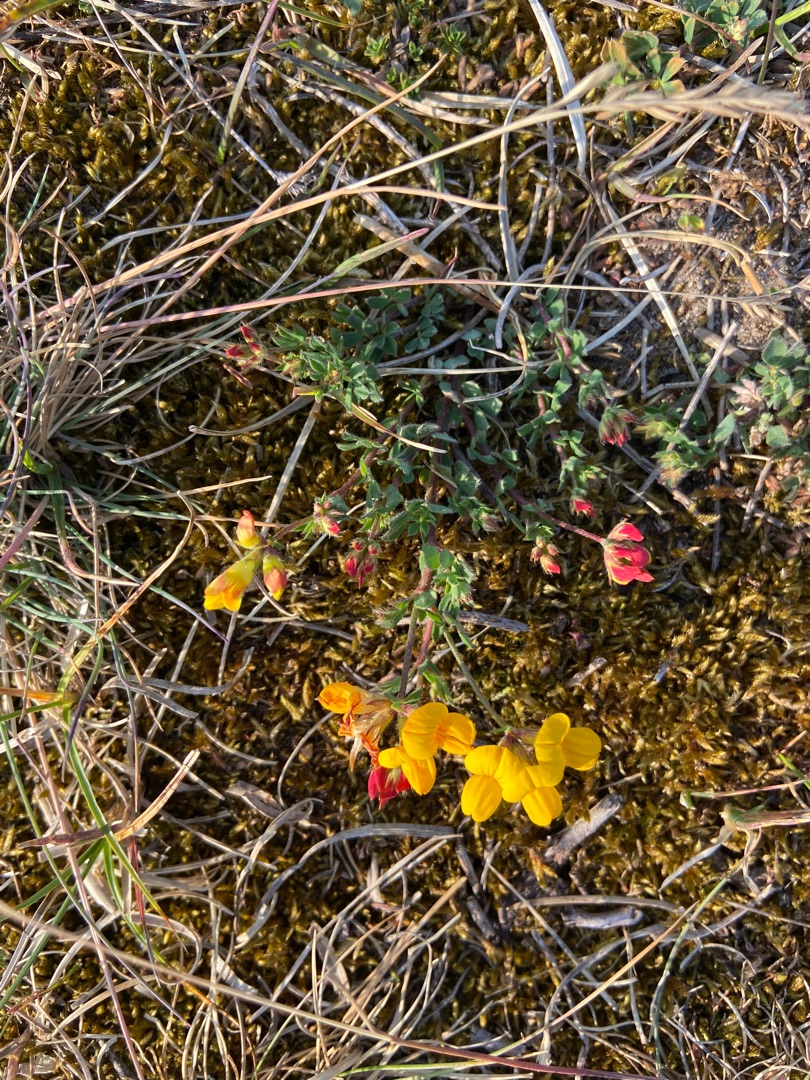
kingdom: Plantae
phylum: Tracheophyta
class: Magnoliopsida
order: Fabales
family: Fabaceae
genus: Lotus
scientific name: Lotus corniculatus
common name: Almindelig kællingetand
